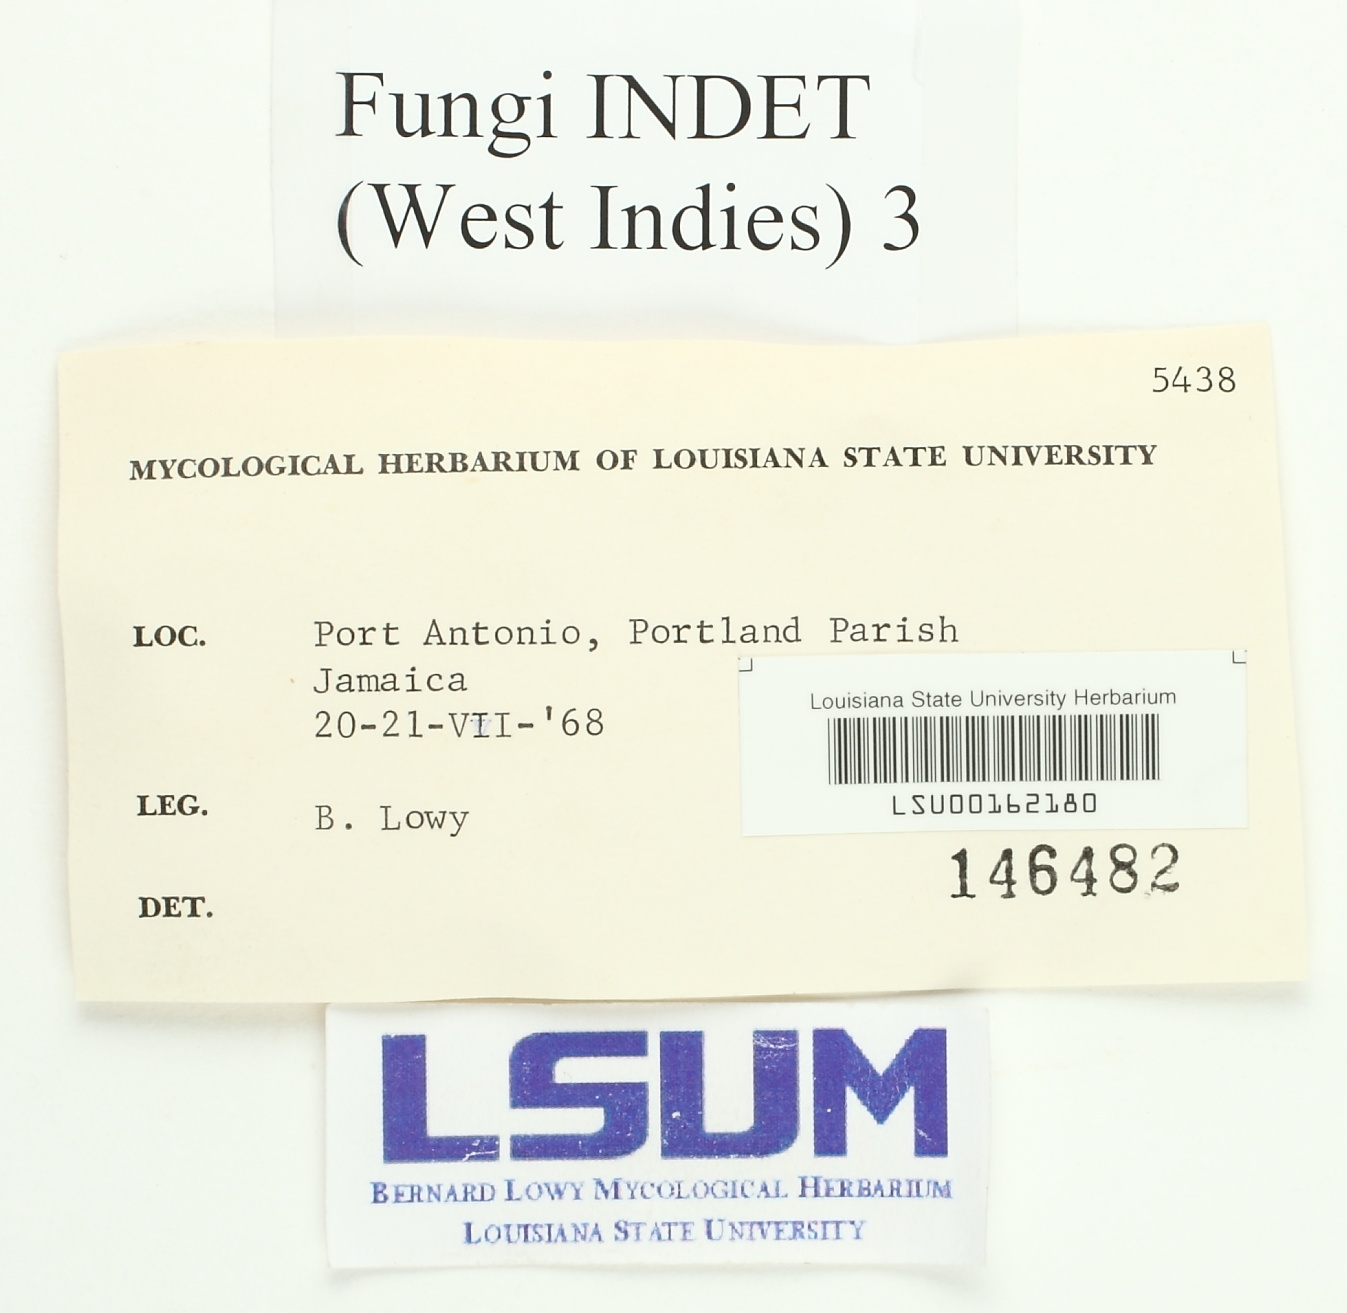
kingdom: Fungi
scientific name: Fungi
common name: Fungi
